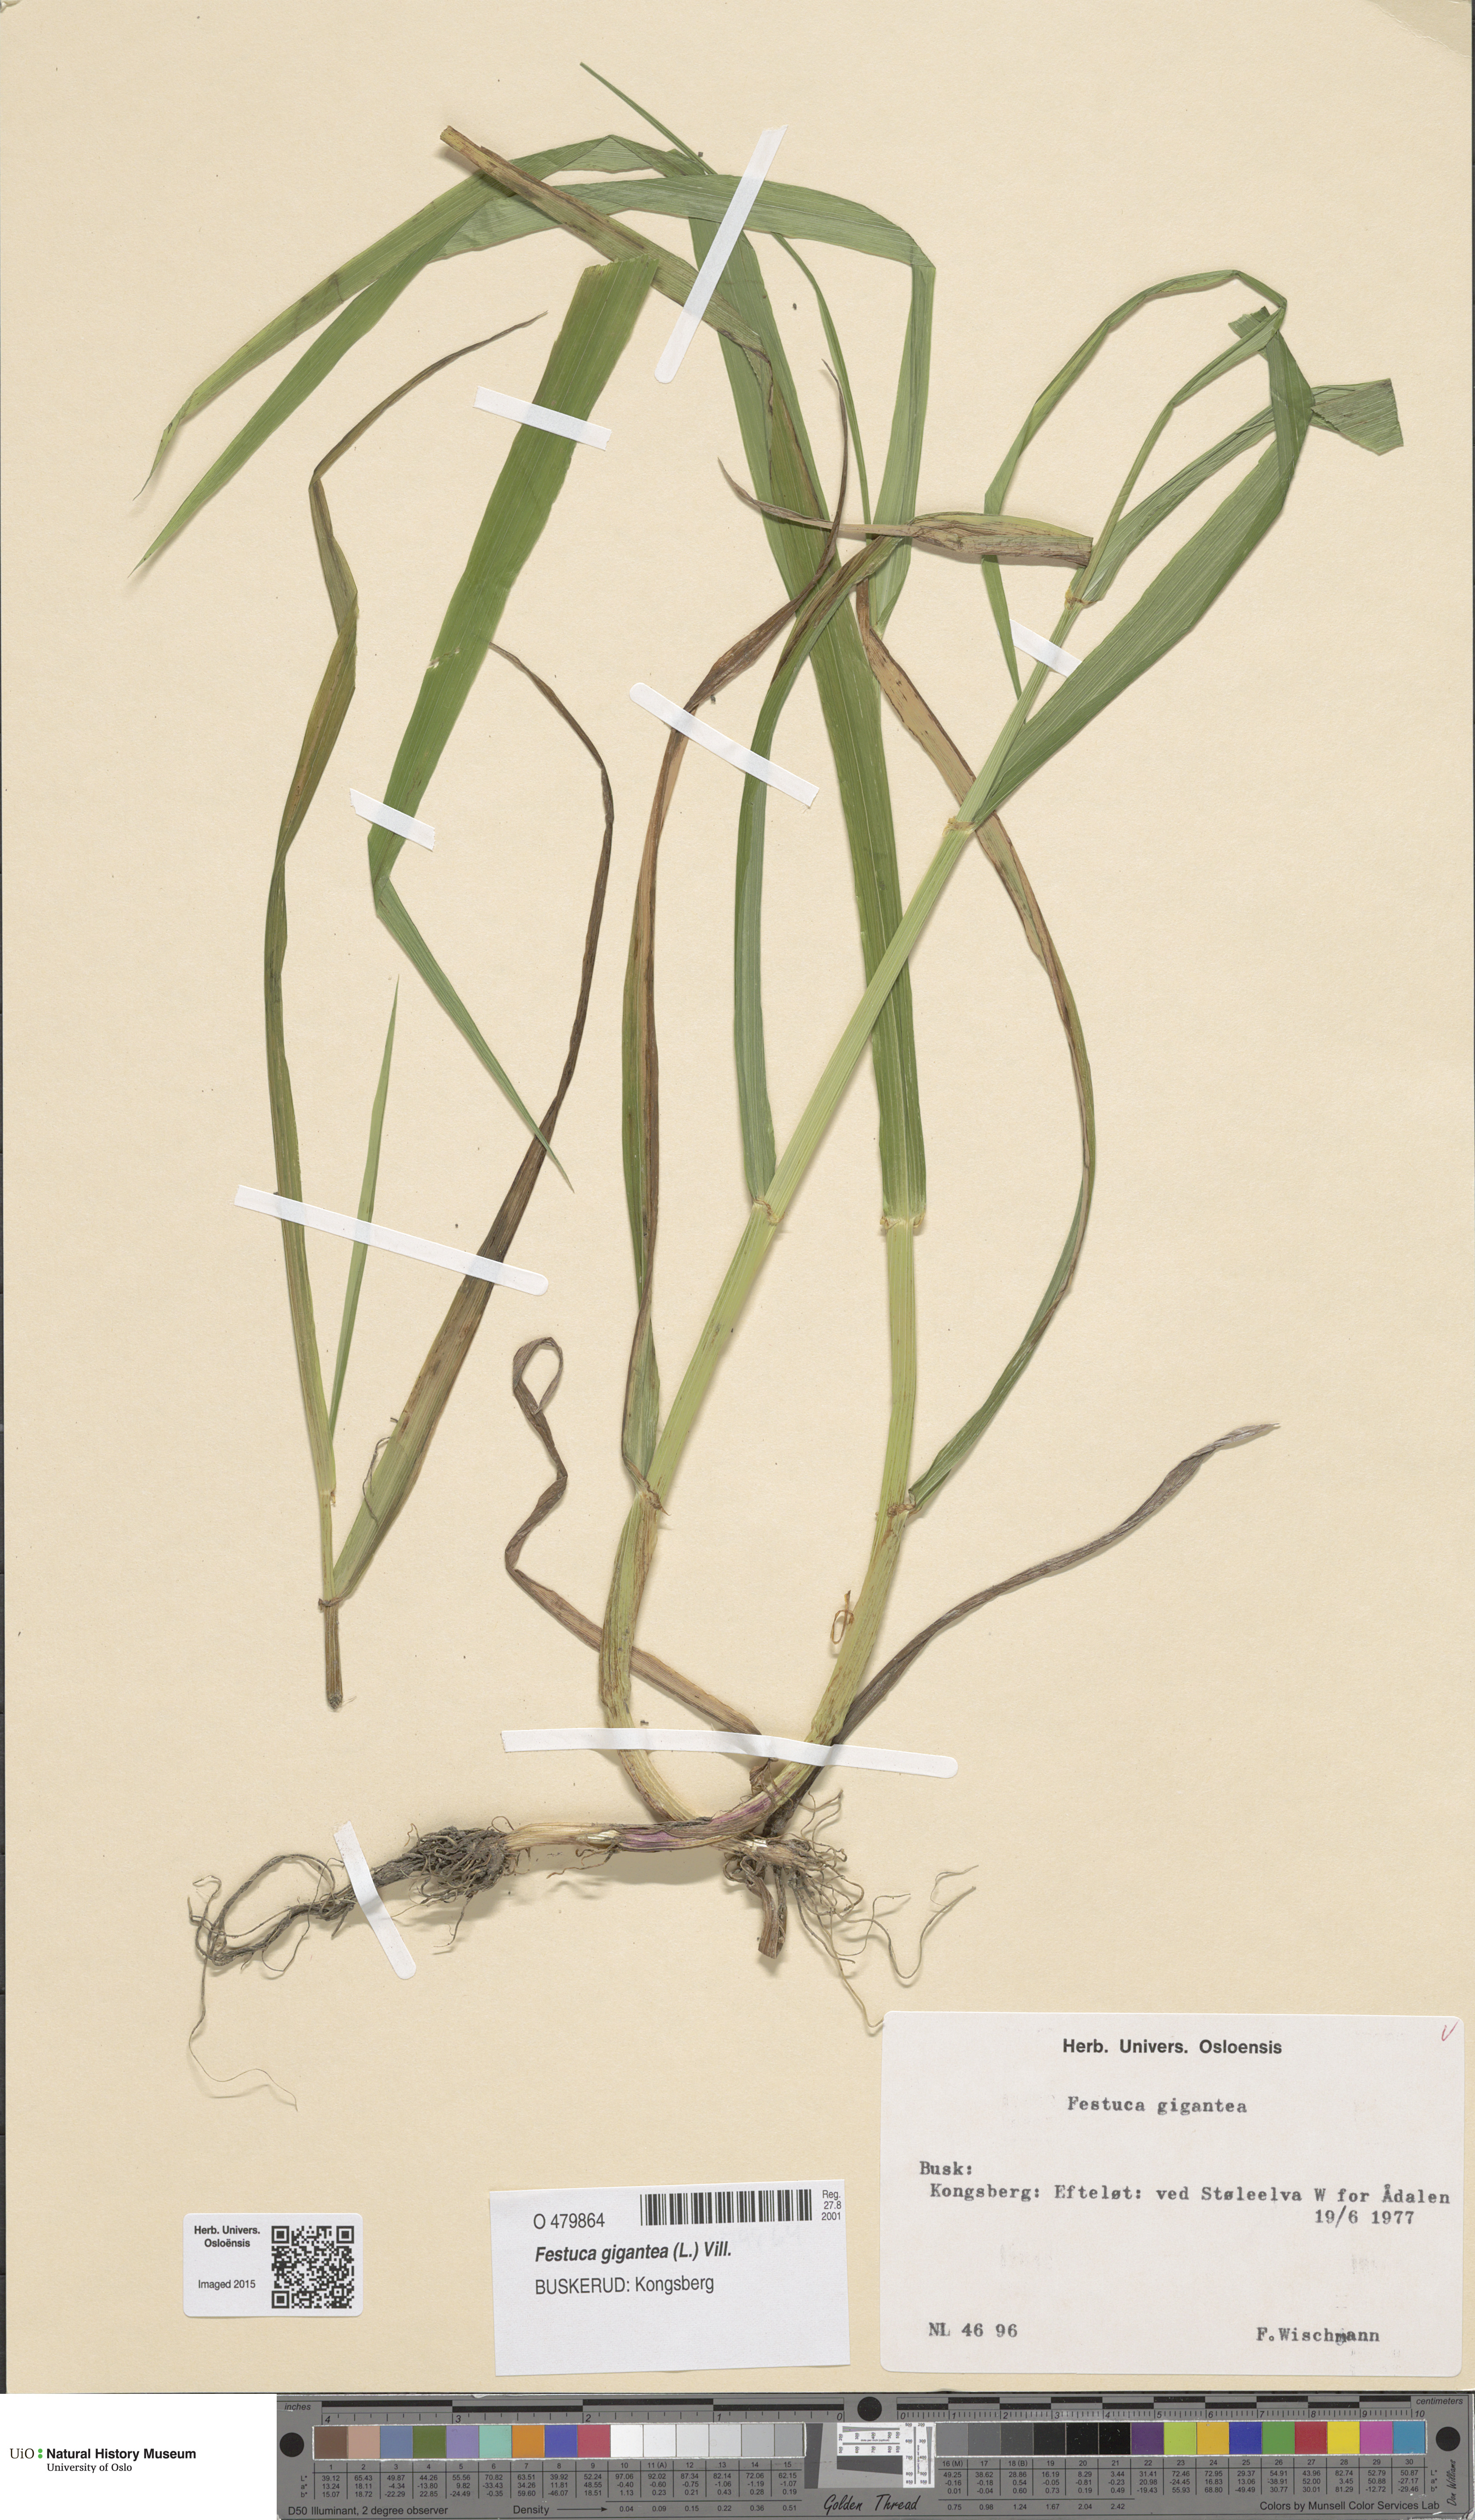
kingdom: Plantae
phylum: Tracheophyta
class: Liliopsida
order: Poales
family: Poaceae
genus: Lolium
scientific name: Lolium giganteum
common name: Giant fescue
